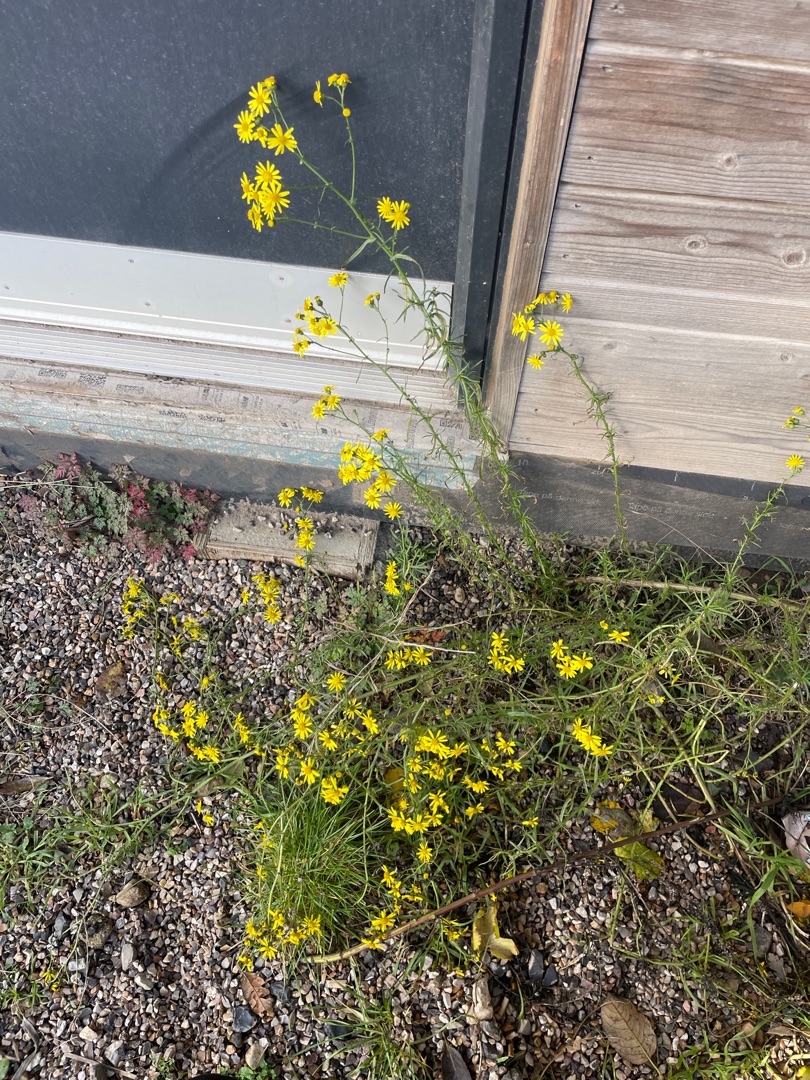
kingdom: Plantae
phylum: Tracheophyta
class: Magnoliopsida
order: Asterales
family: Asteraceae
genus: Senecio
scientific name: Senecio inaequidens
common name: Smalbladet brandbæger
